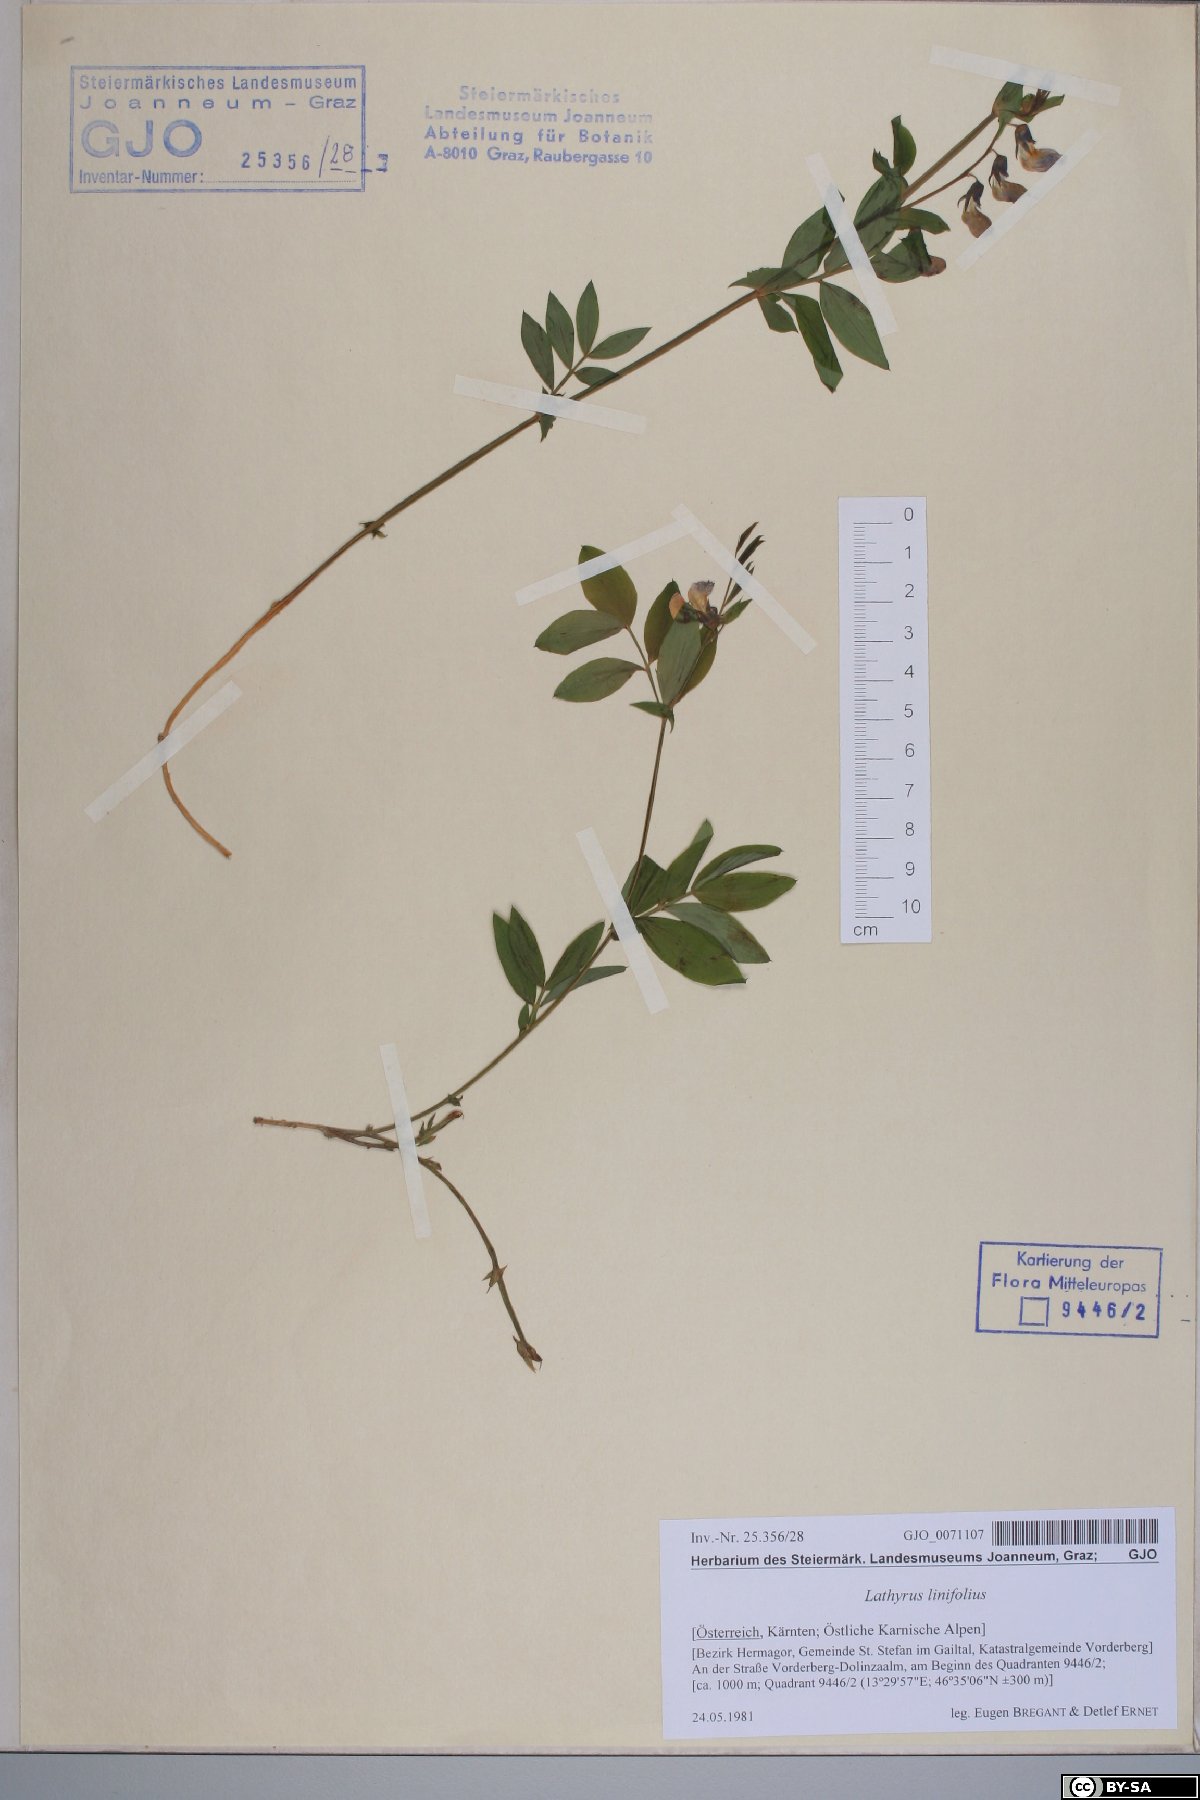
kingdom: Plantae
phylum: Tracheophyta
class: Magnoliopsida
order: Fabales
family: Fabaceae
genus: Lathyrus
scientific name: Lathyrus linifolius
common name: Bitter-vetch
